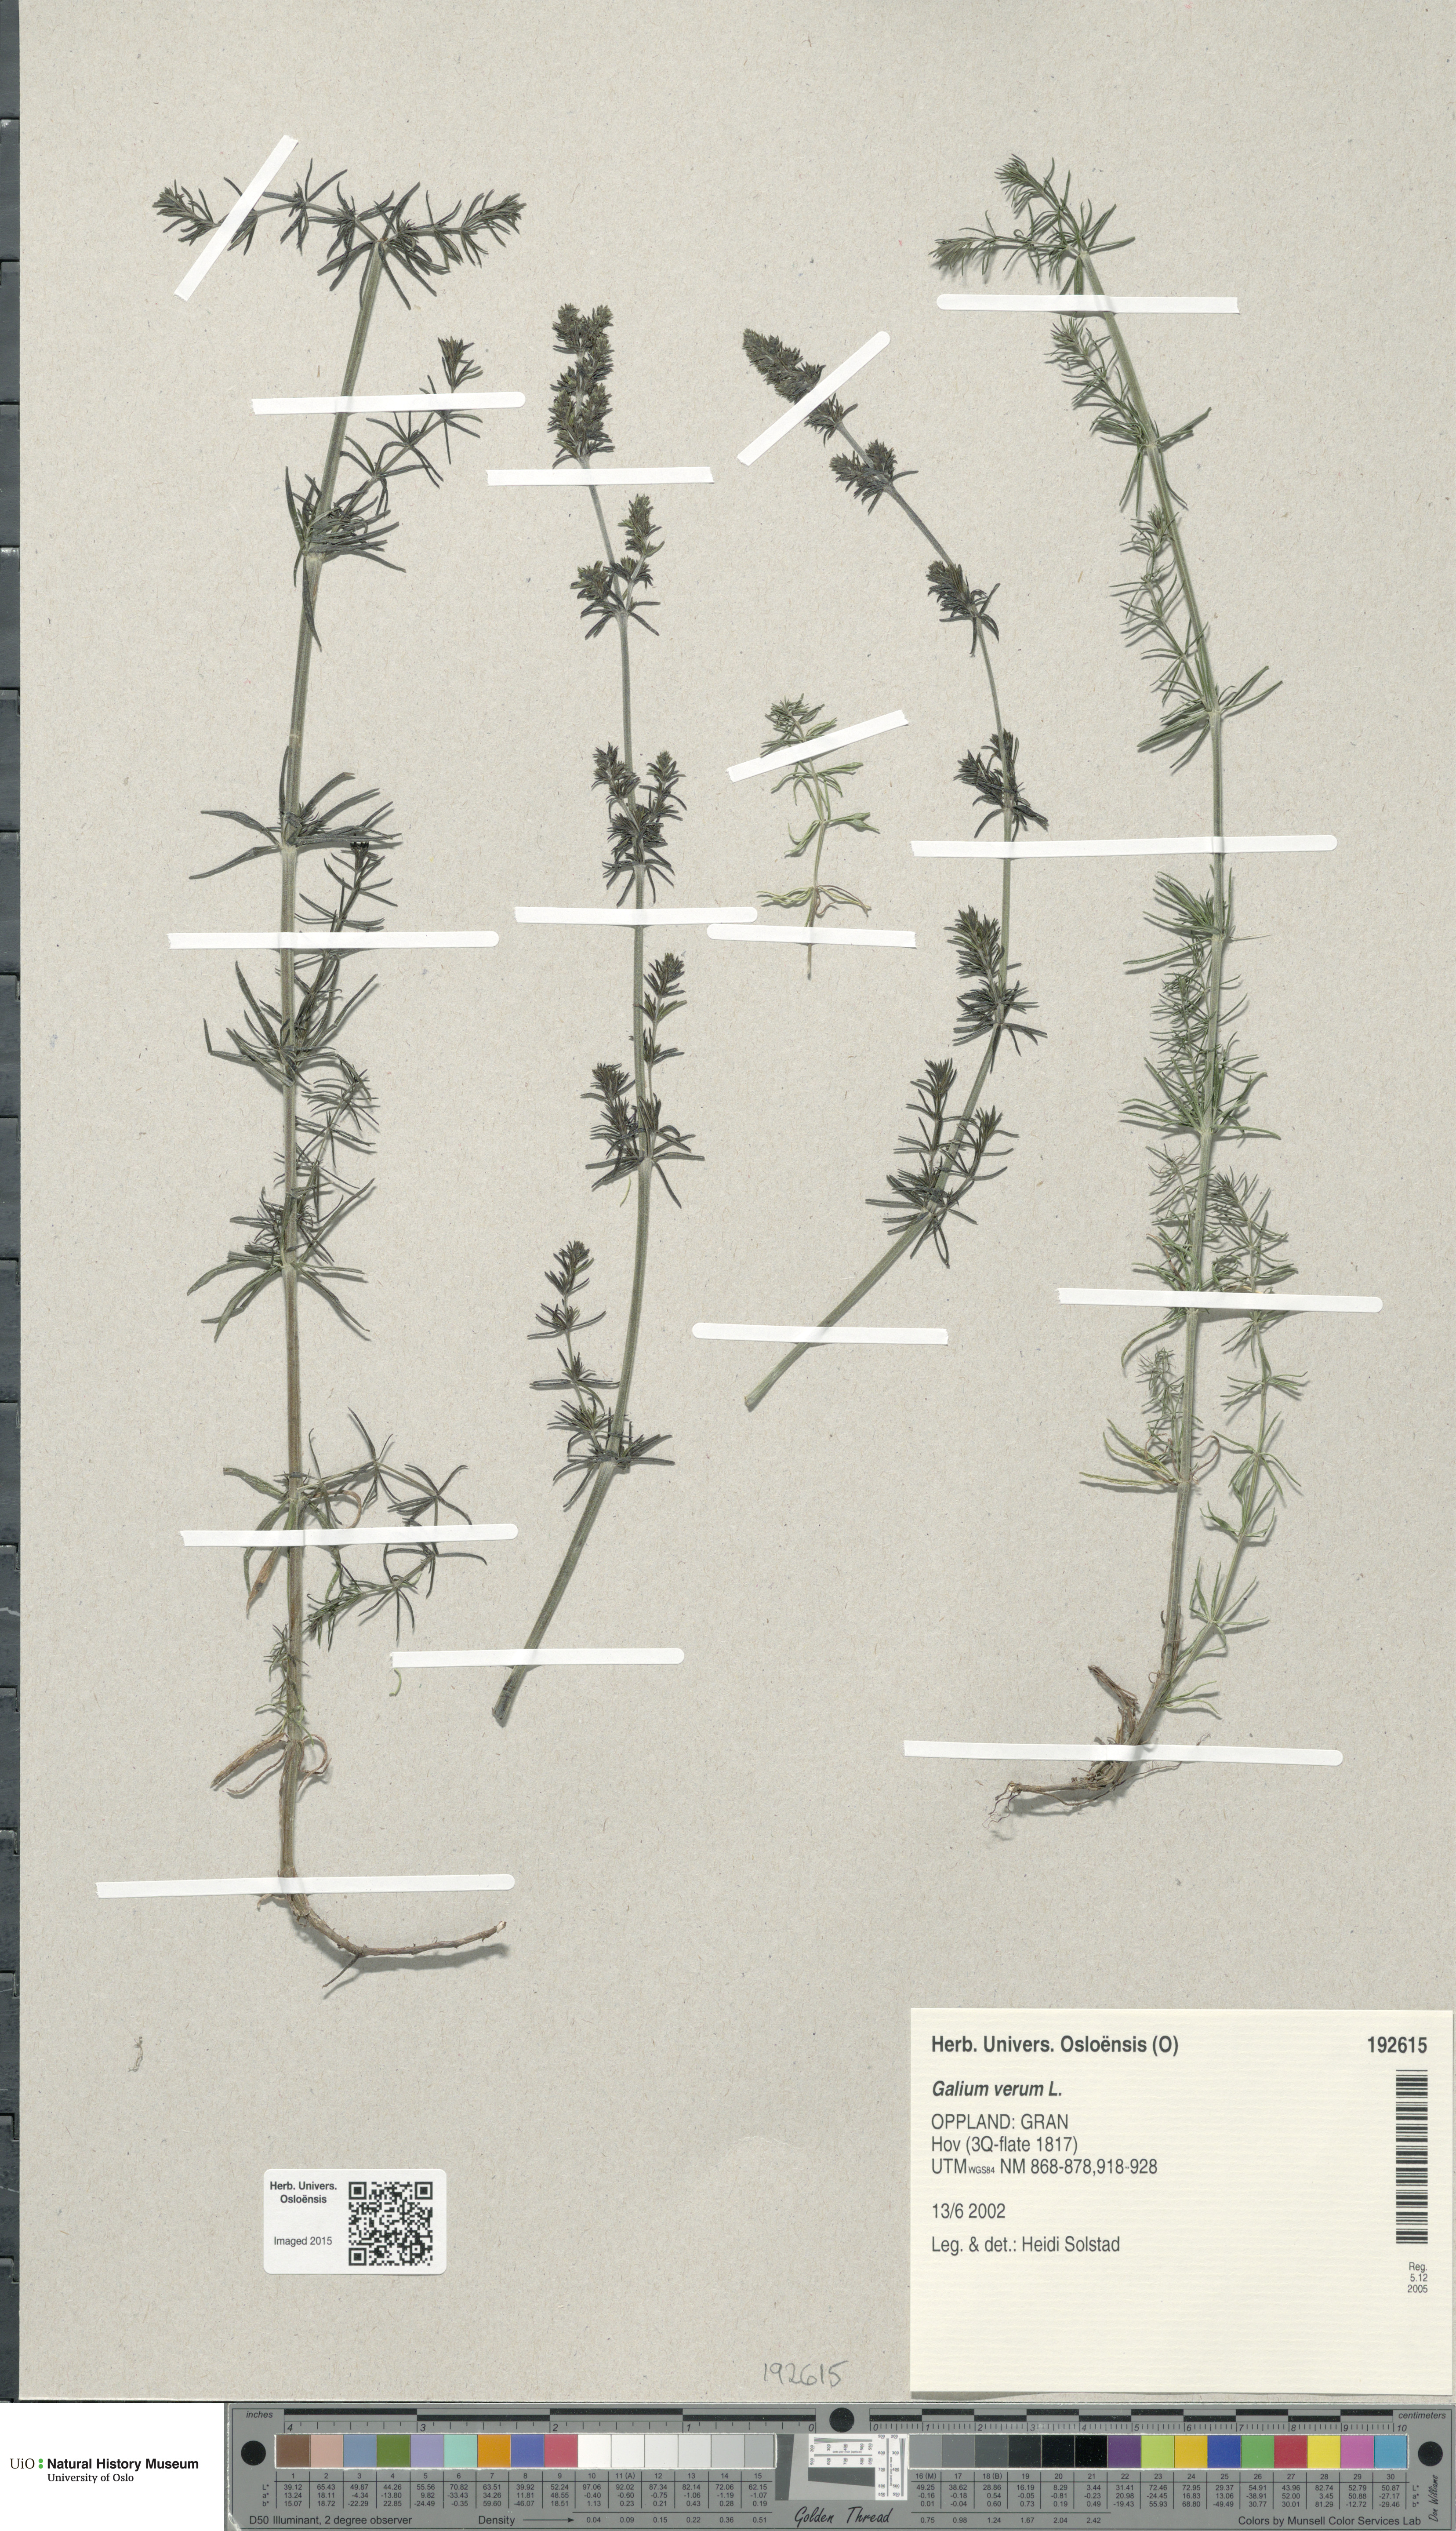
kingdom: Plantae
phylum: Tracheophyta
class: Magnoliopsida
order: Gentianales
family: Rubiaceae
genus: Galium
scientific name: Galium verum
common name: Lady's bedstraw
